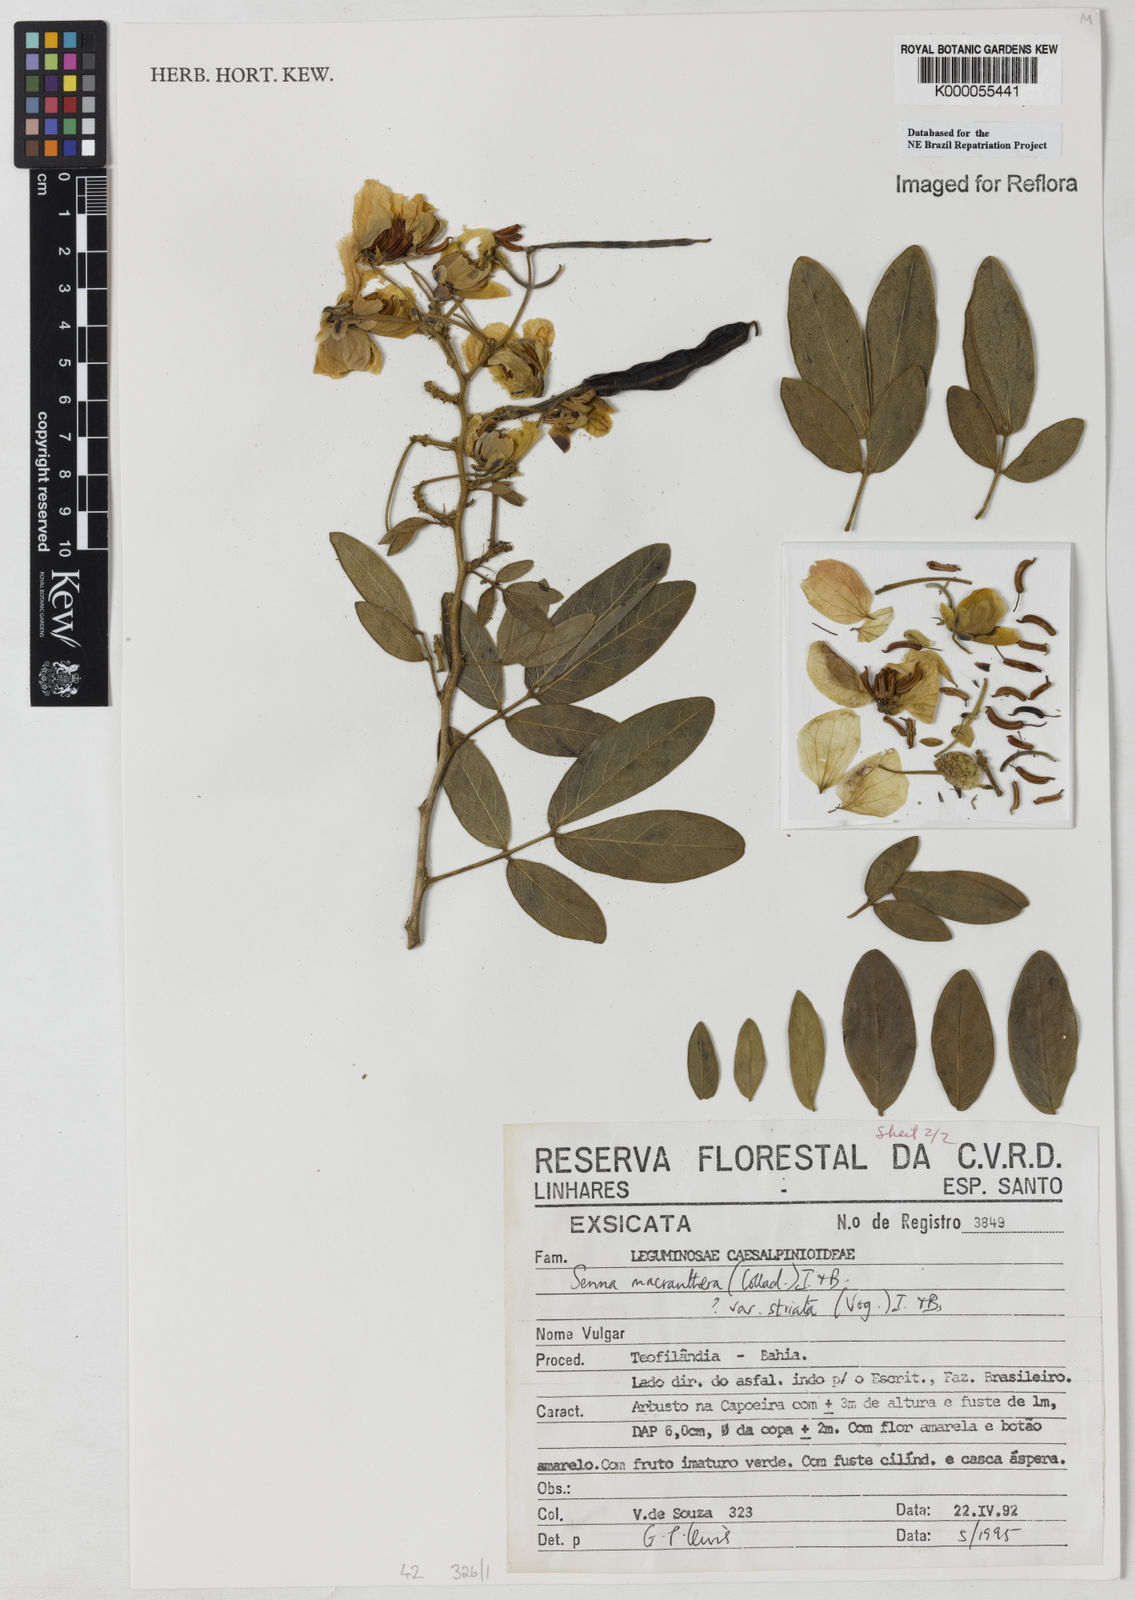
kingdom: Plantae
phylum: Tracheophyta
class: Magnoliopsida
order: Fabales
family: Fabaceae
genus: Senna
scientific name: Senna macranthera
